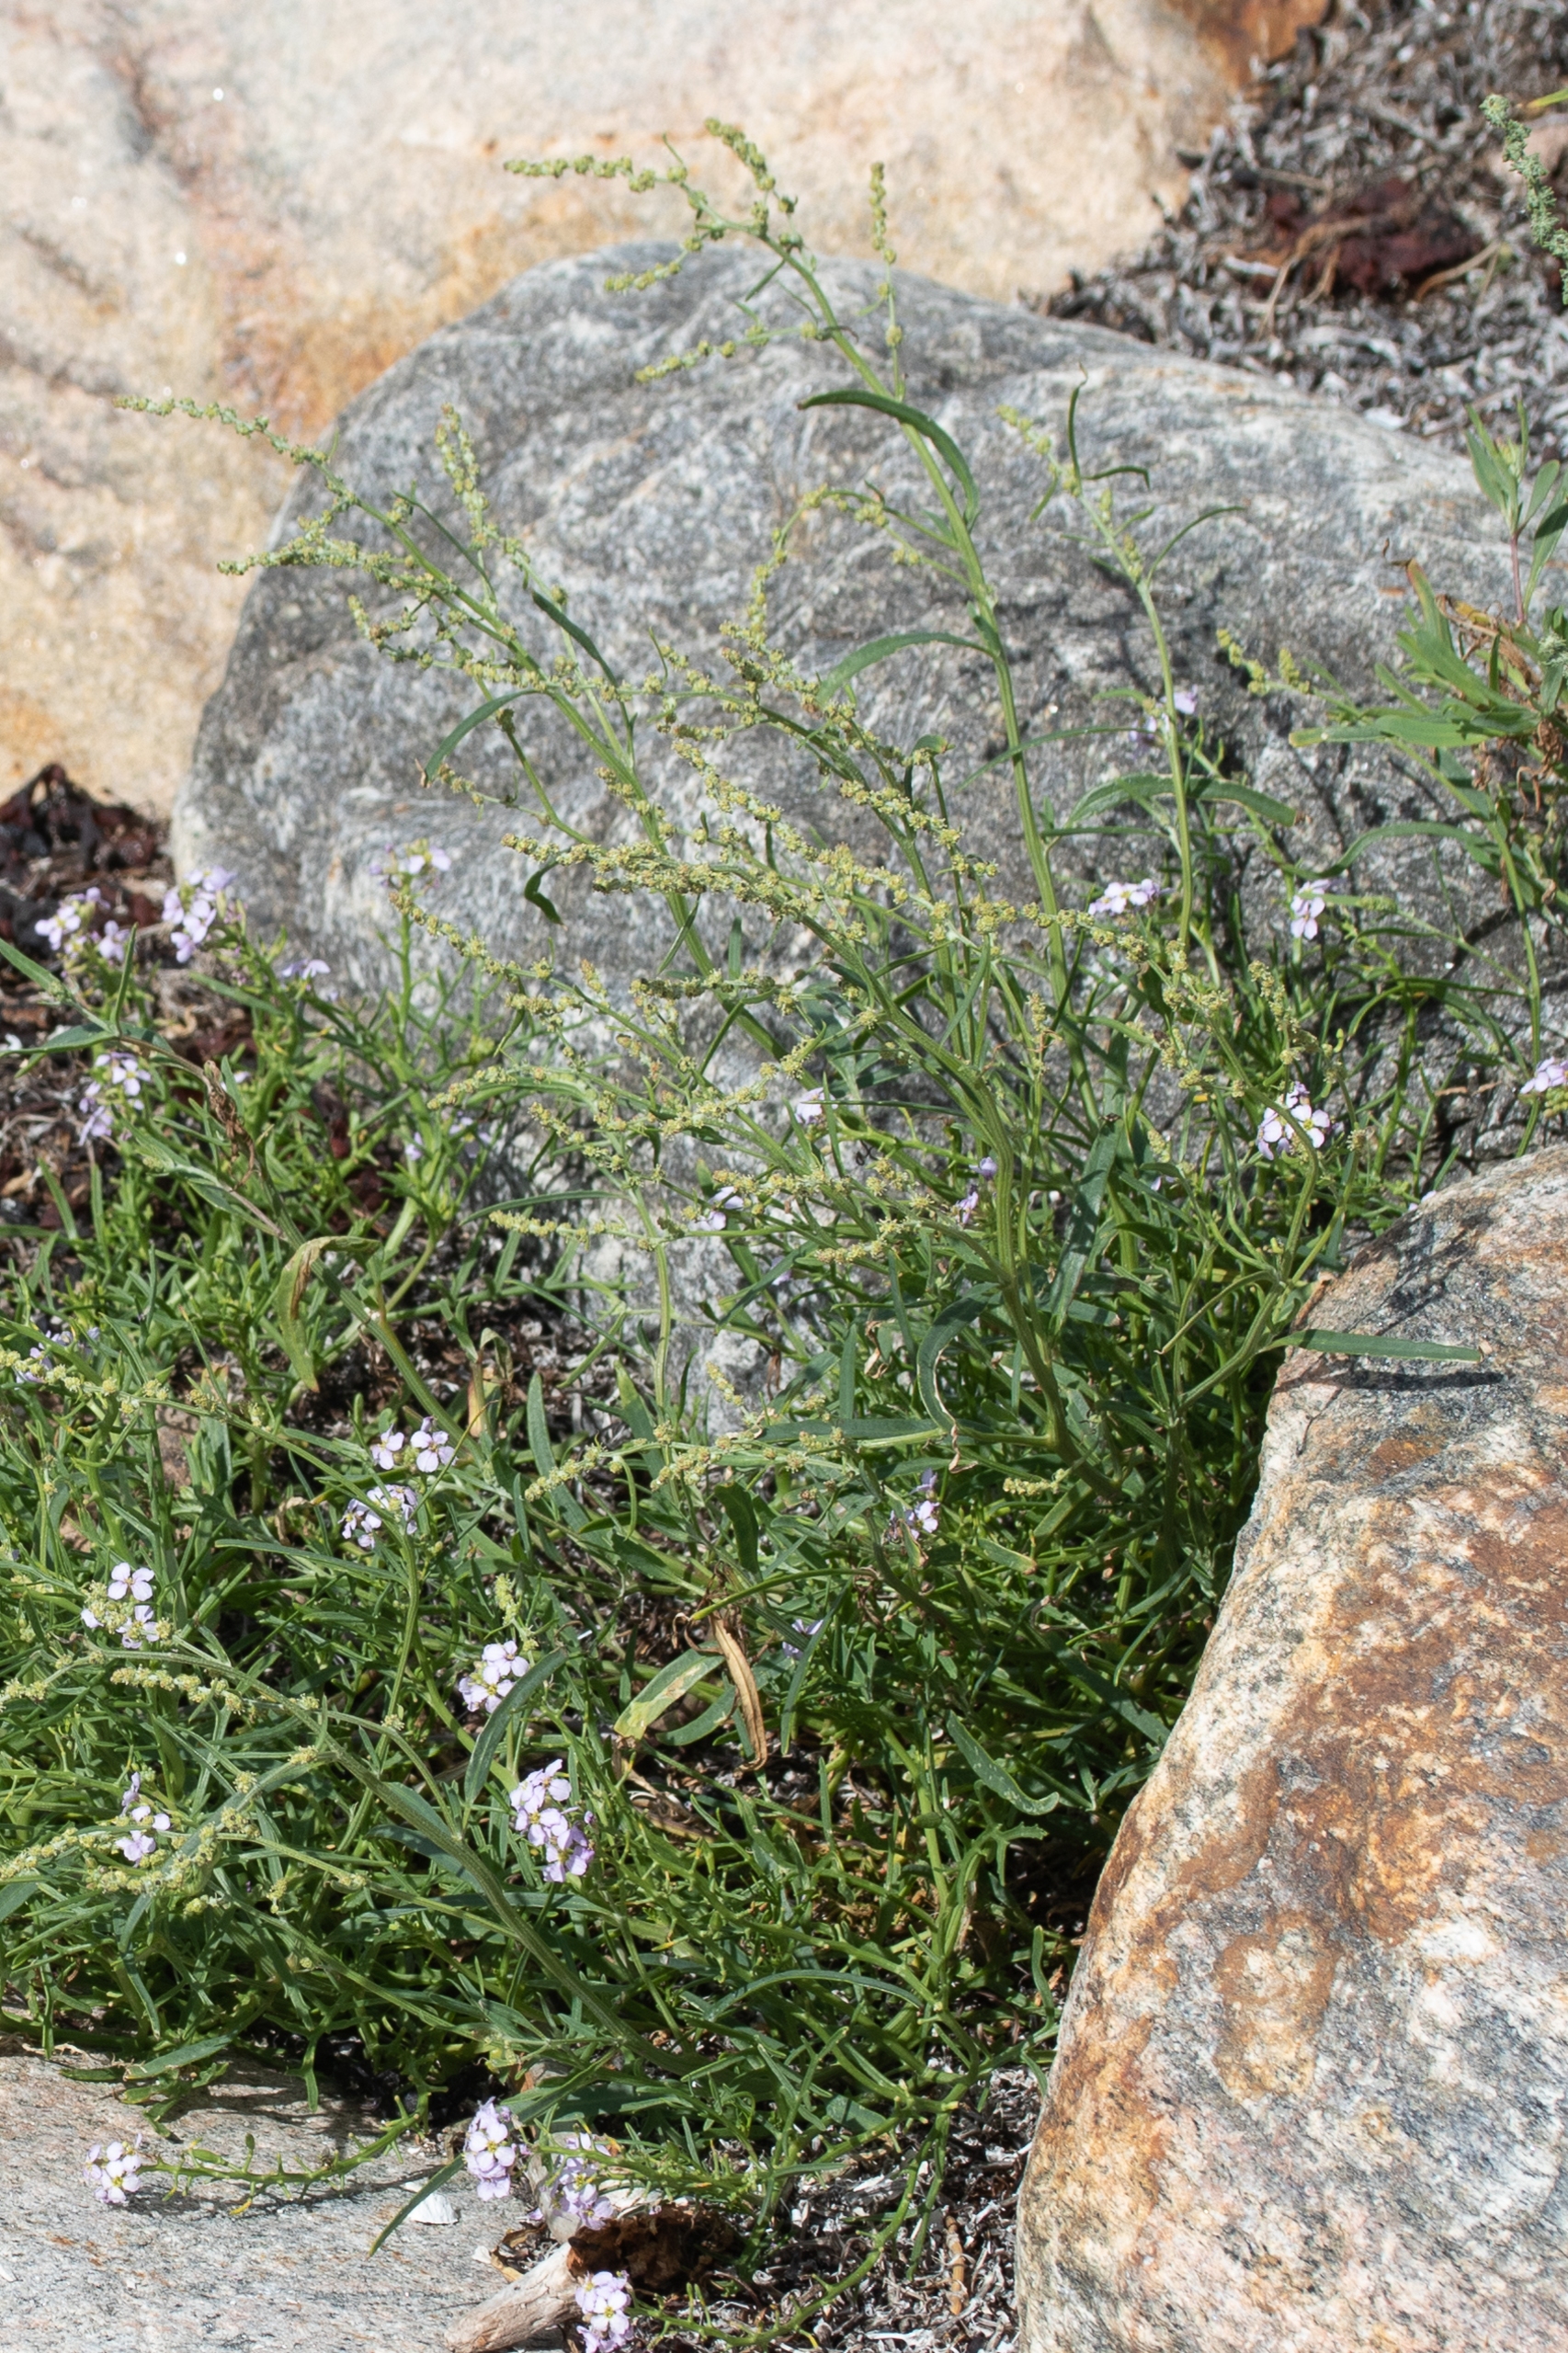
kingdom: Plantae
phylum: Tracheophyta
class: Magnoliopsida
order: Caryophyllales
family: Amaranthaceae
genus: Atriplex
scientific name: Atriplex littoralis
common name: Strand-mælde
